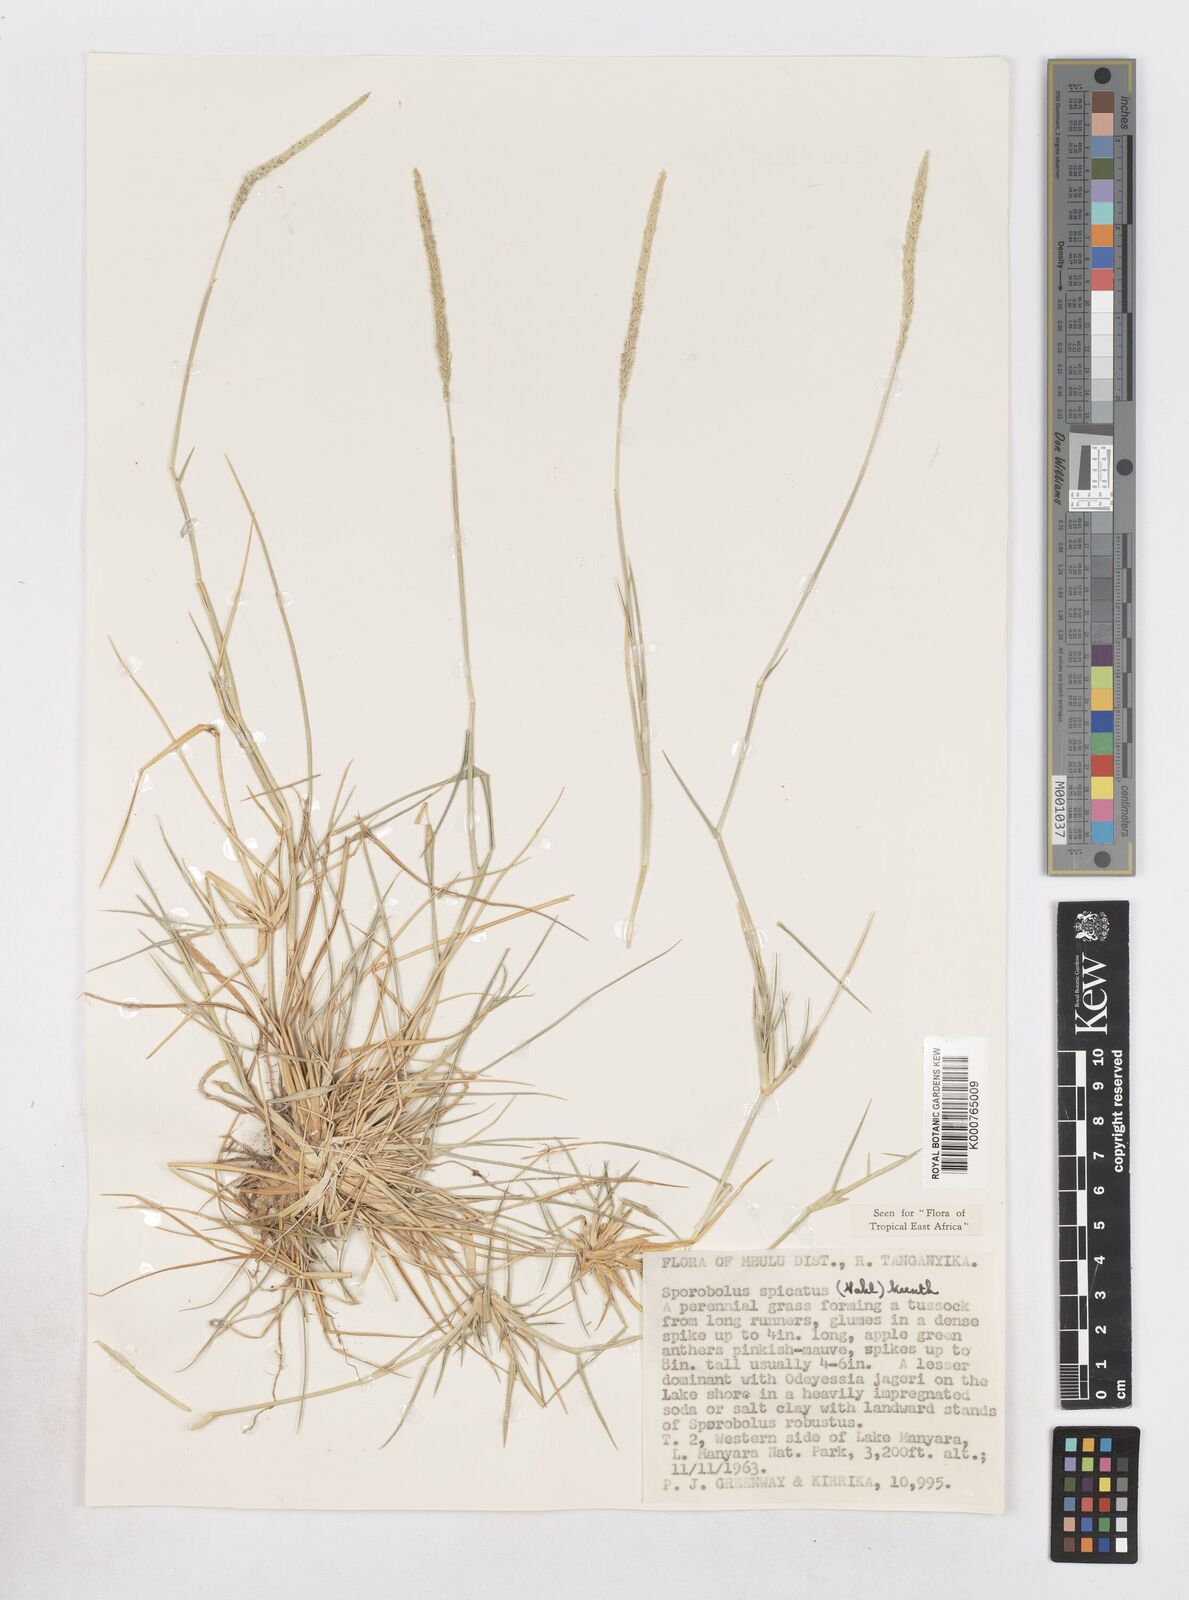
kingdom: Plantae
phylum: Tracheophyta
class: Liliopsida
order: Poales
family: Poaceae
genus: Sporobolus
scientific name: Sporobolus spicatus
